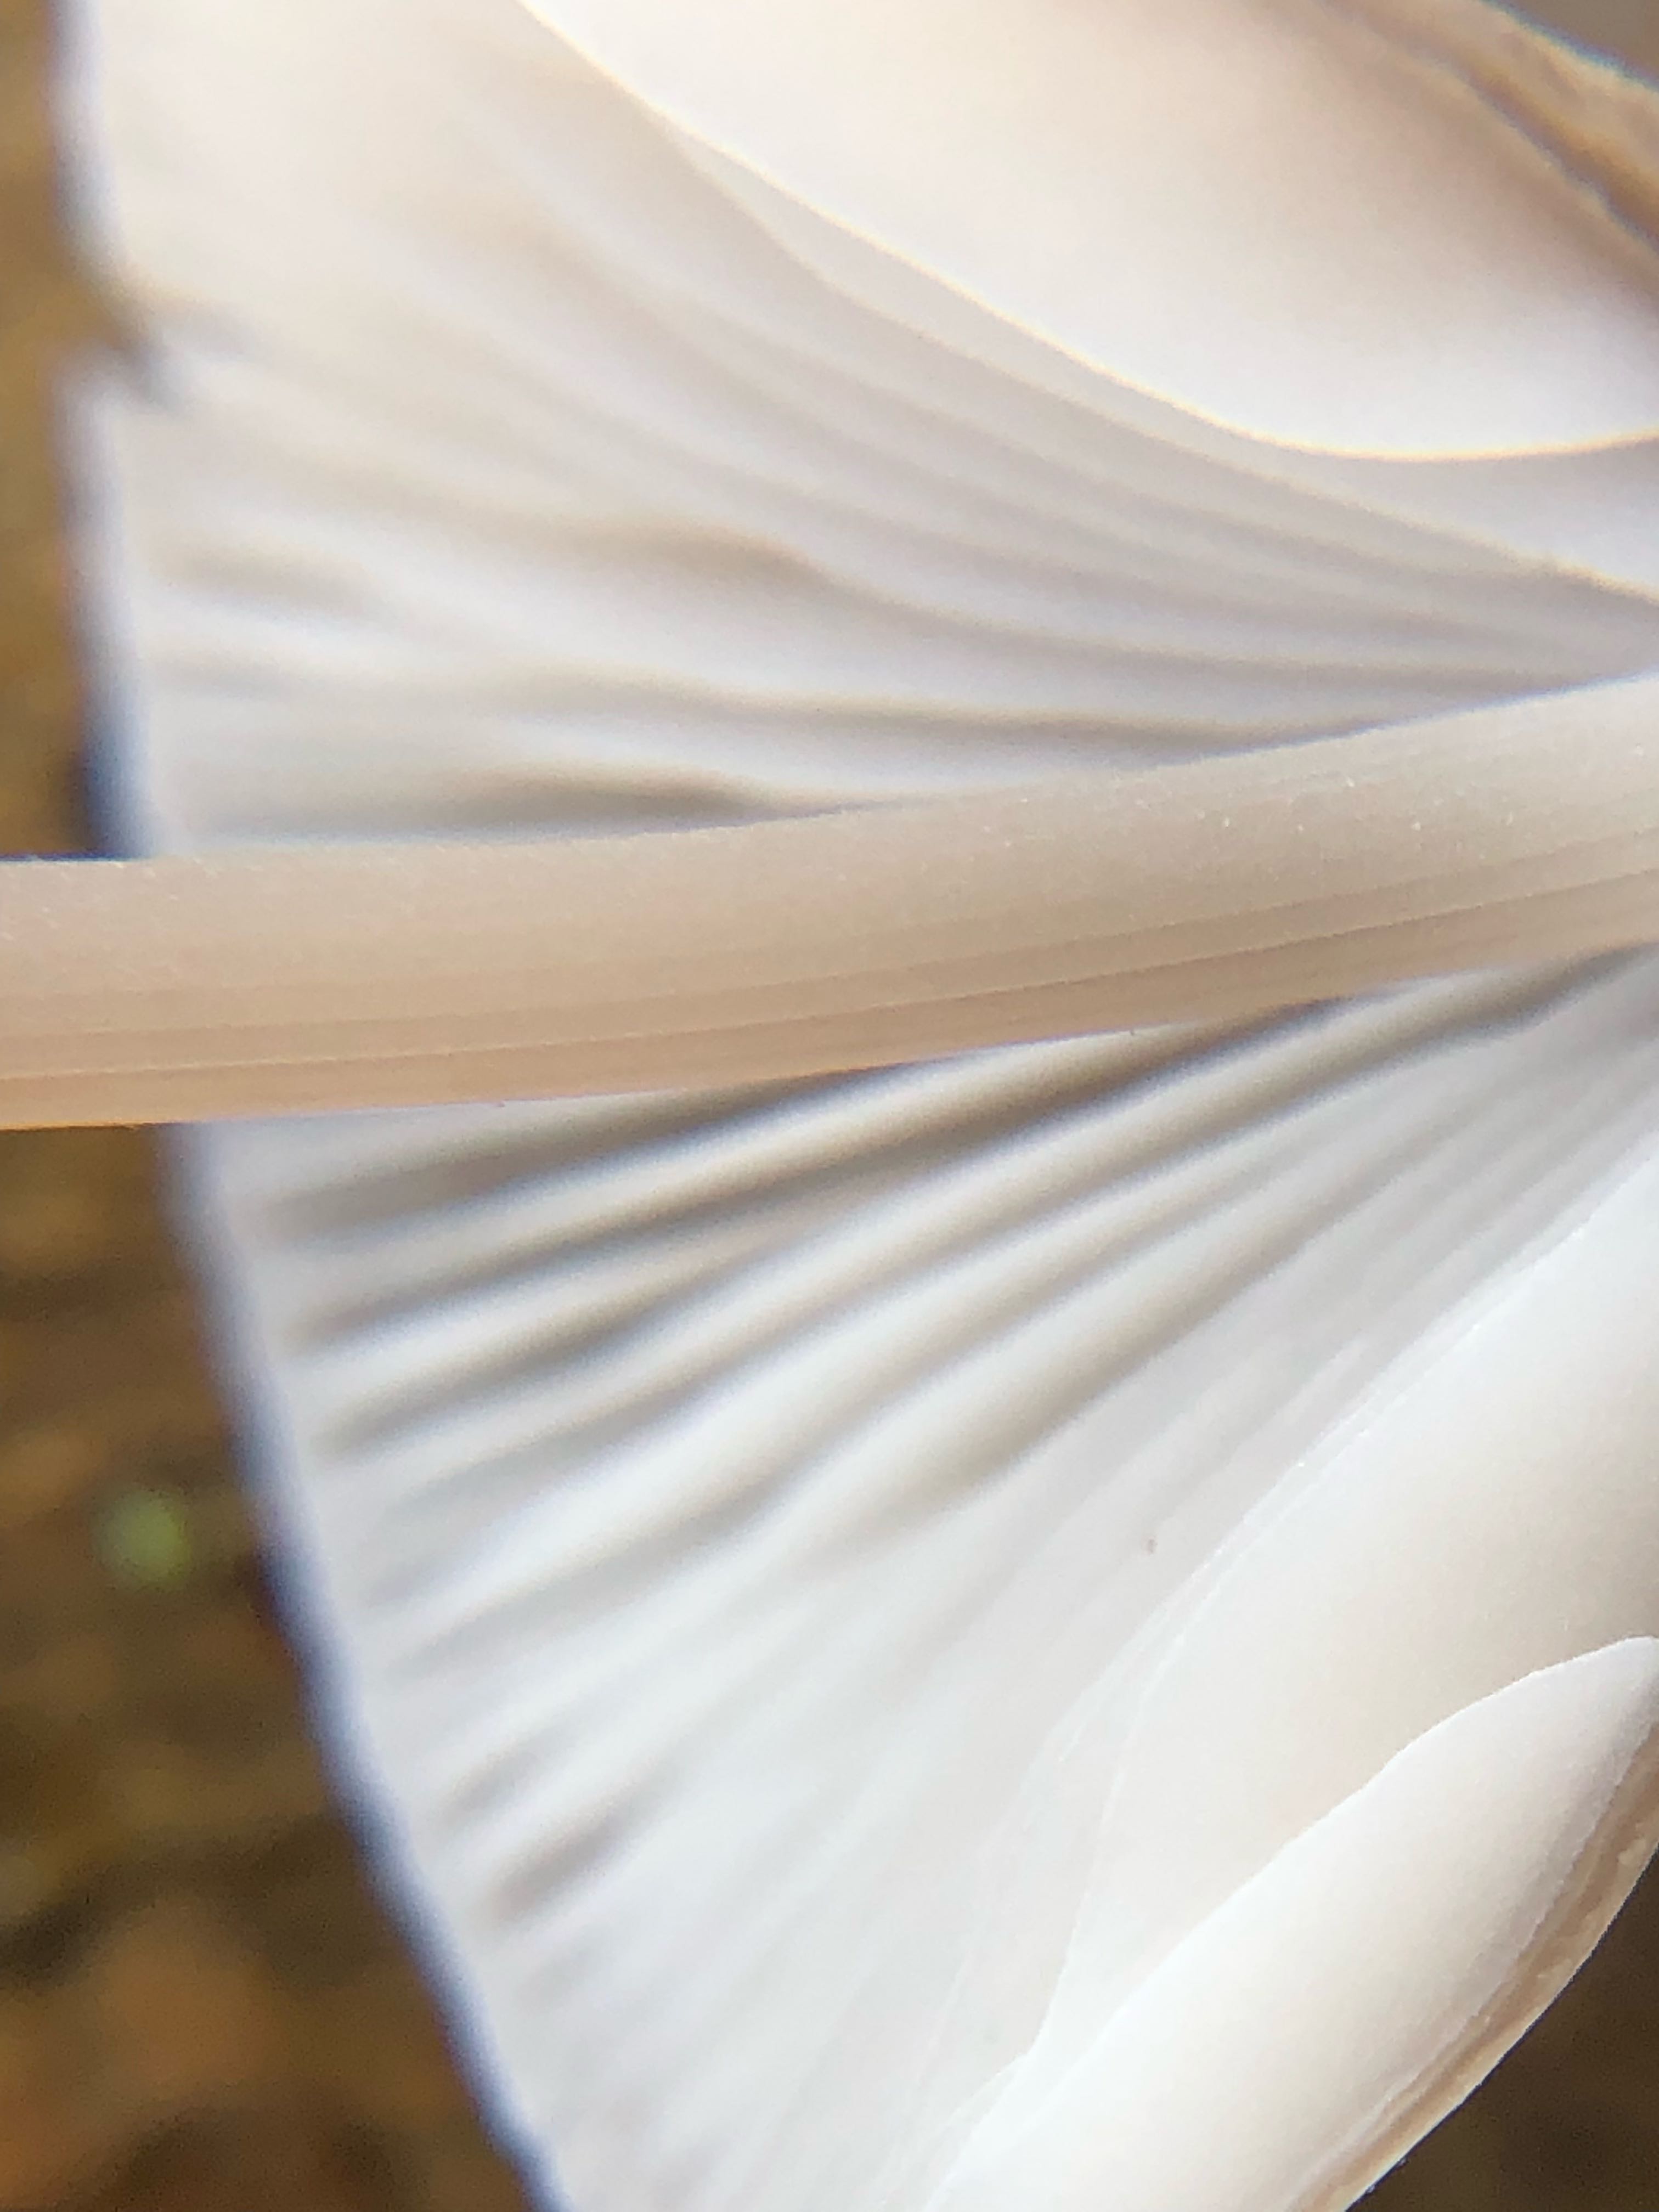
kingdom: Fungi
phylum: Basidiomycota
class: Agaricomycetes
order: Agaricales
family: Mycenaceae
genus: Mycena
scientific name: Mycena polygramma
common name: mangestribet huesvamp
